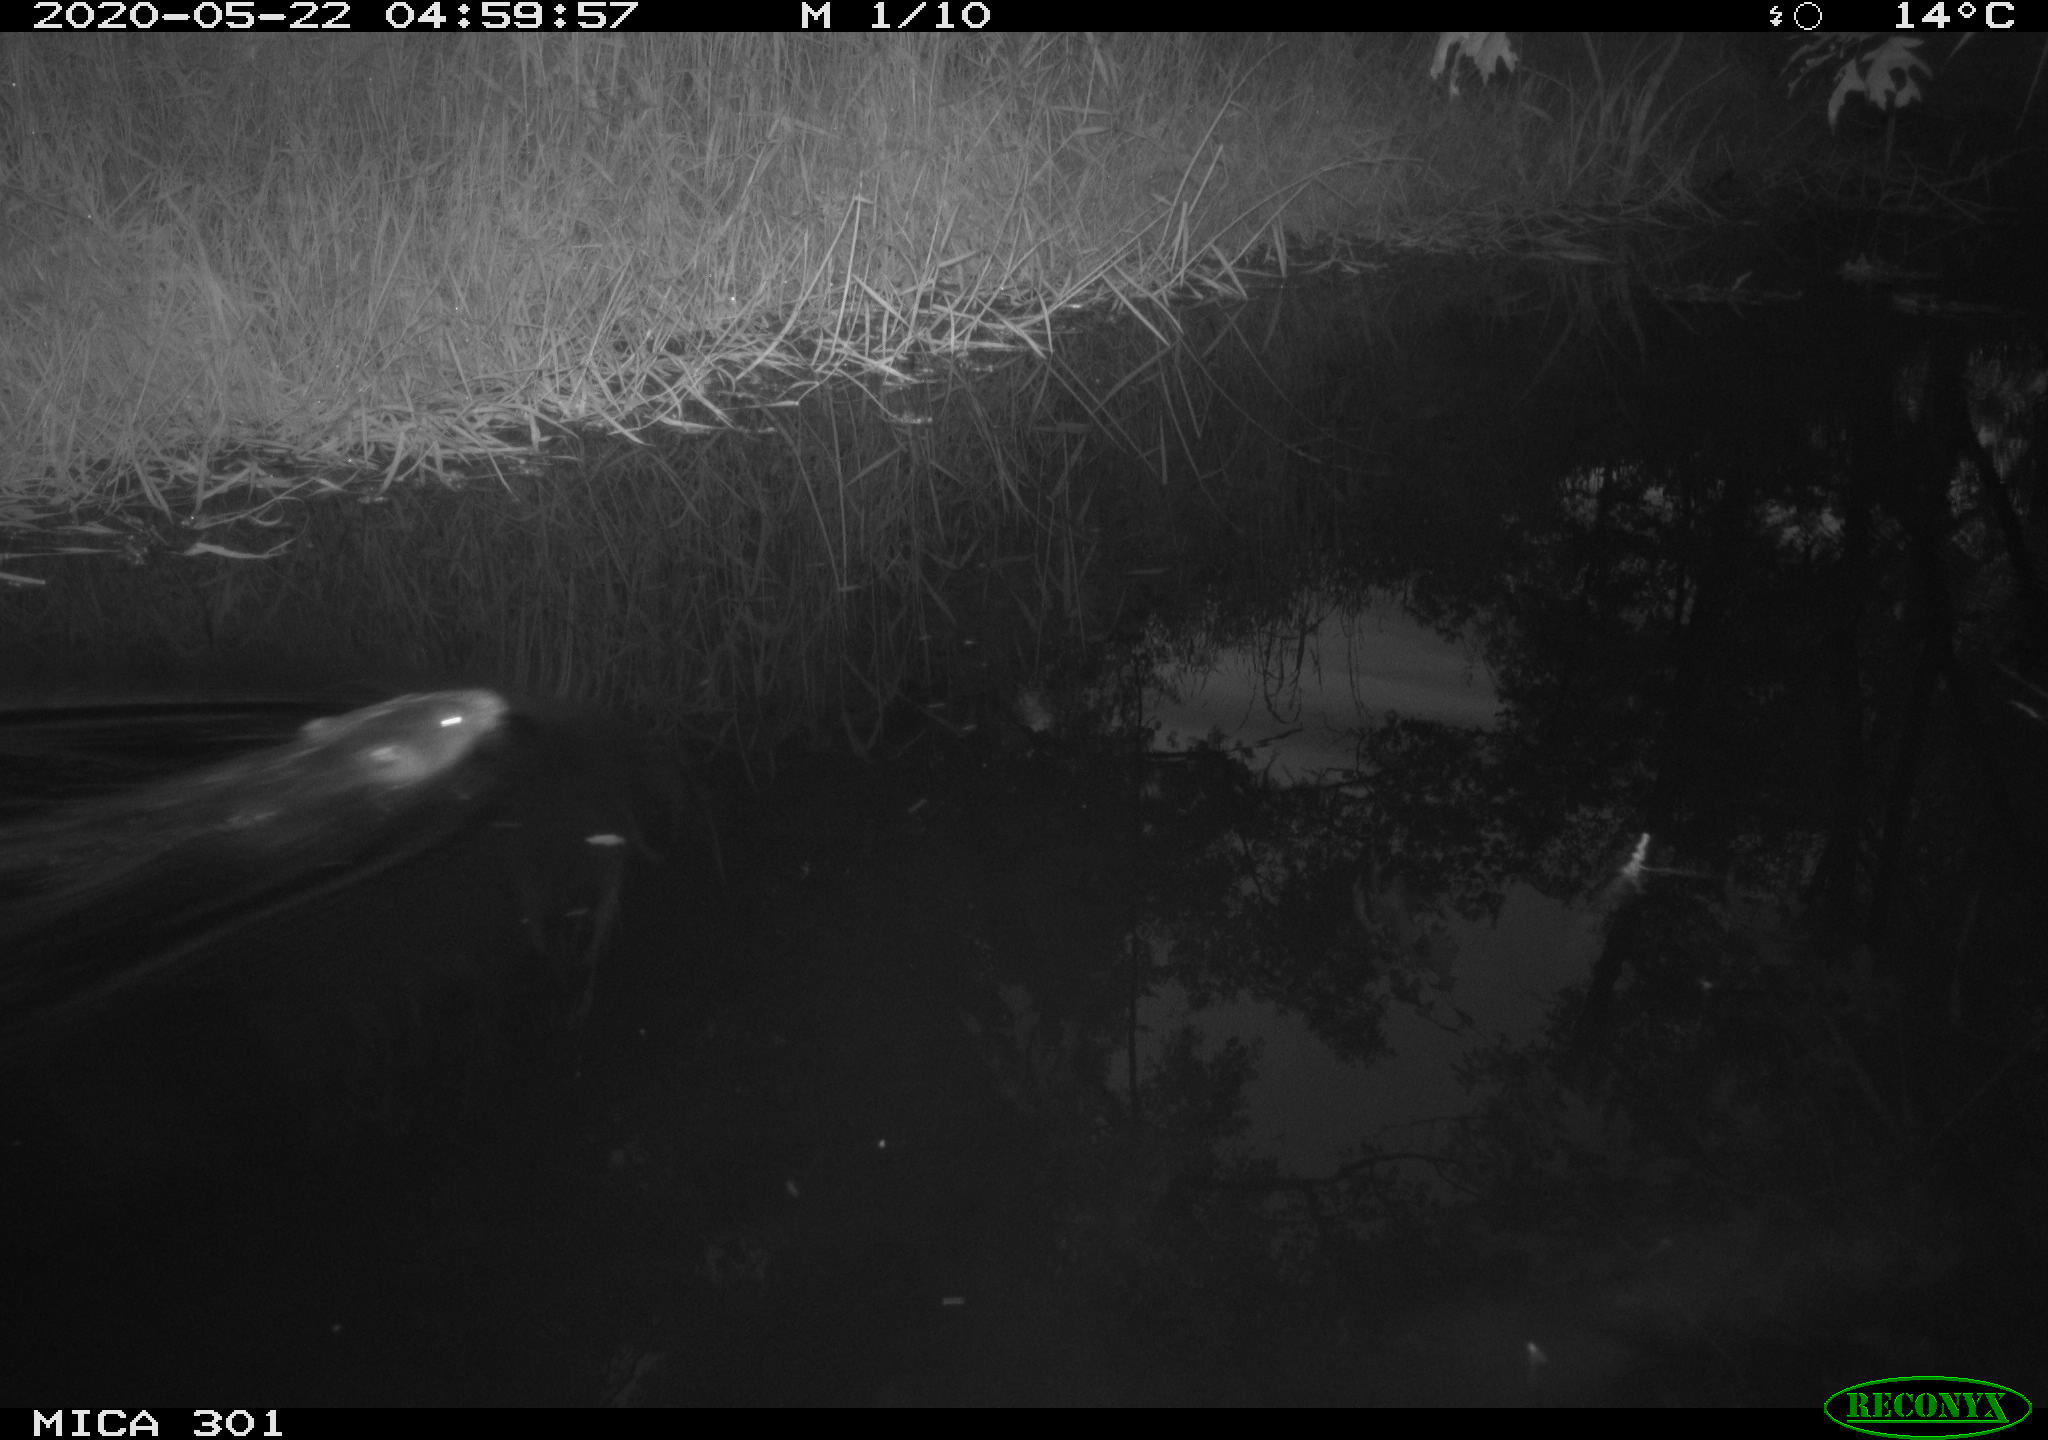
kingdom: Animalia
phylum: Chordata
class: Mammalia
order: Rodentia
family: Castoridae
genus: Castor
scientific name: Castor fiber
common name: Eurasian beaver
